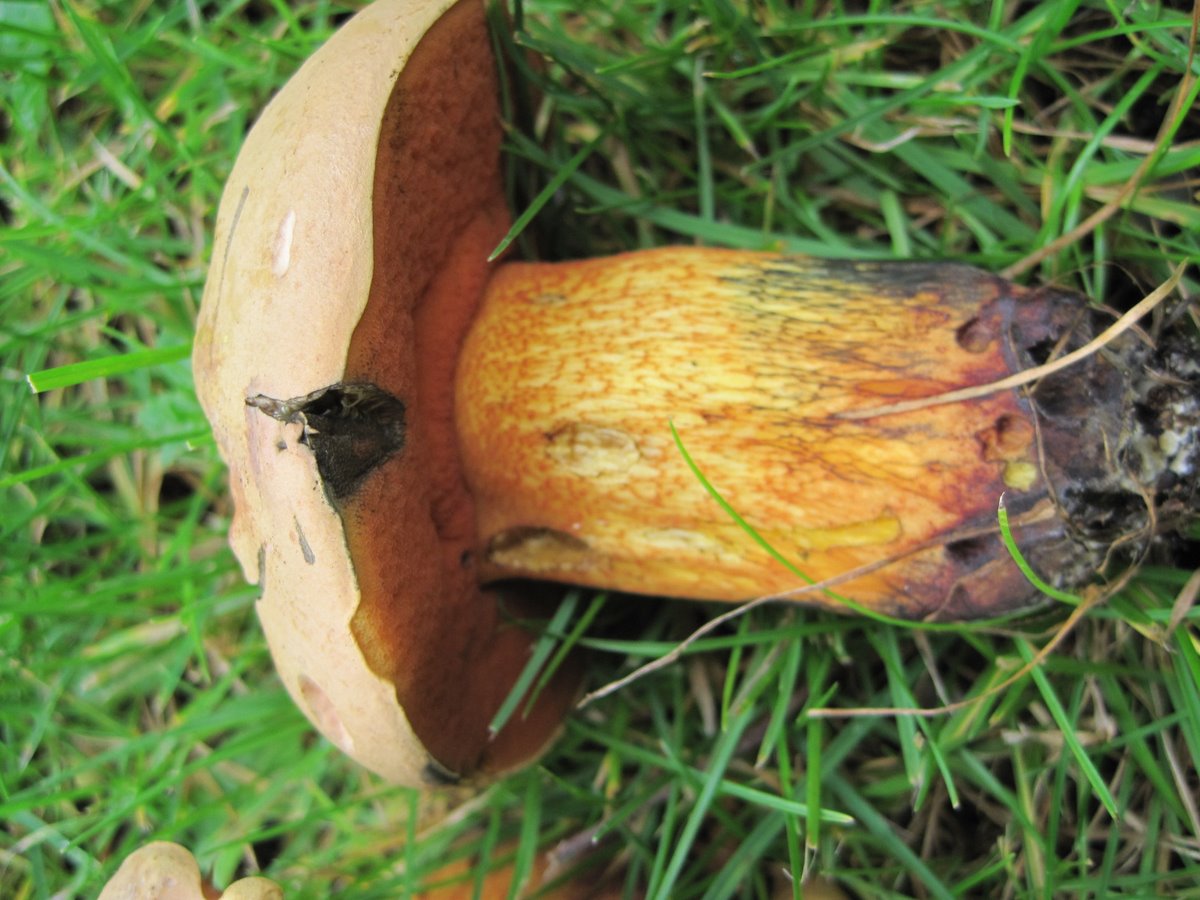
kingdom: Fungi
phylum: Basidiomycota
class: Agaricomycetes
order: Boletales
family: Boletaceae
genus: Suillellus
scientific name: Suillellus luridus
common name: netstokket indigorørhat
